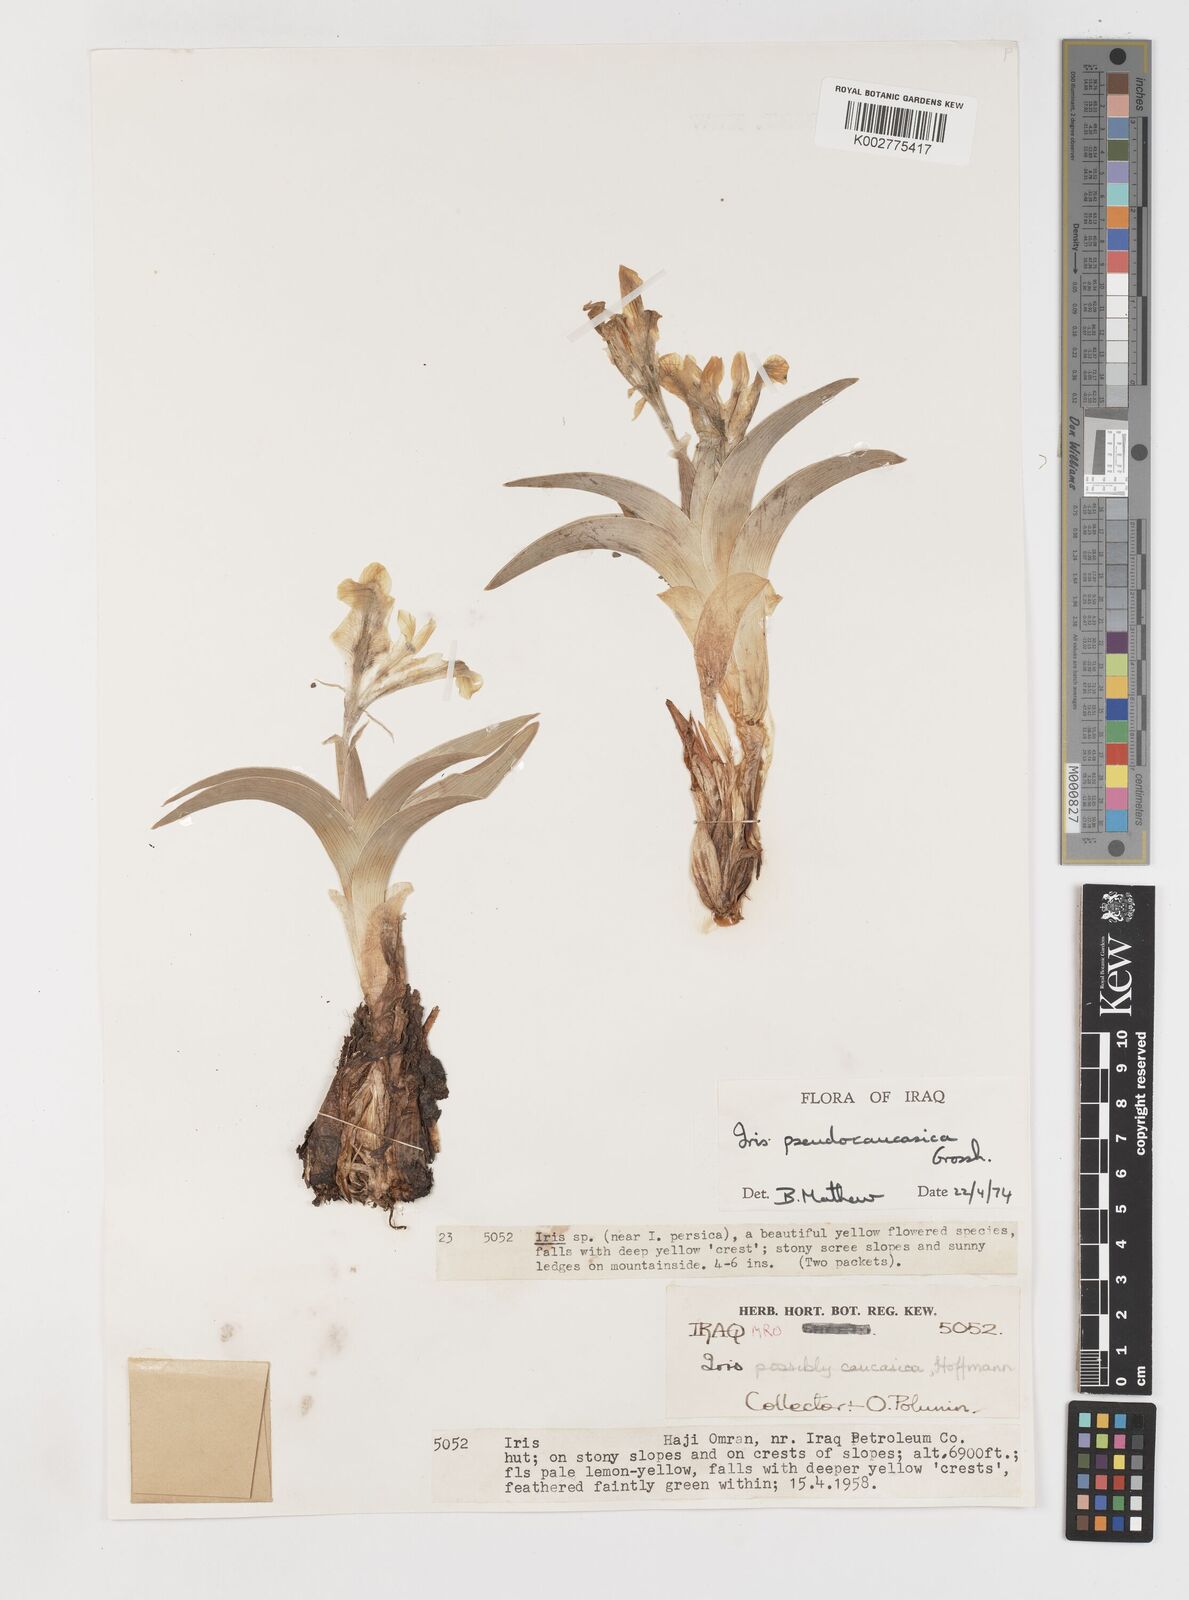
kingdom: Plantae
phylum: Tracheophyta
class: Liliopsida
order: Asparagales
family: Iridaceae
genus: Iris
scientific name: Iris pseudocaucasica
